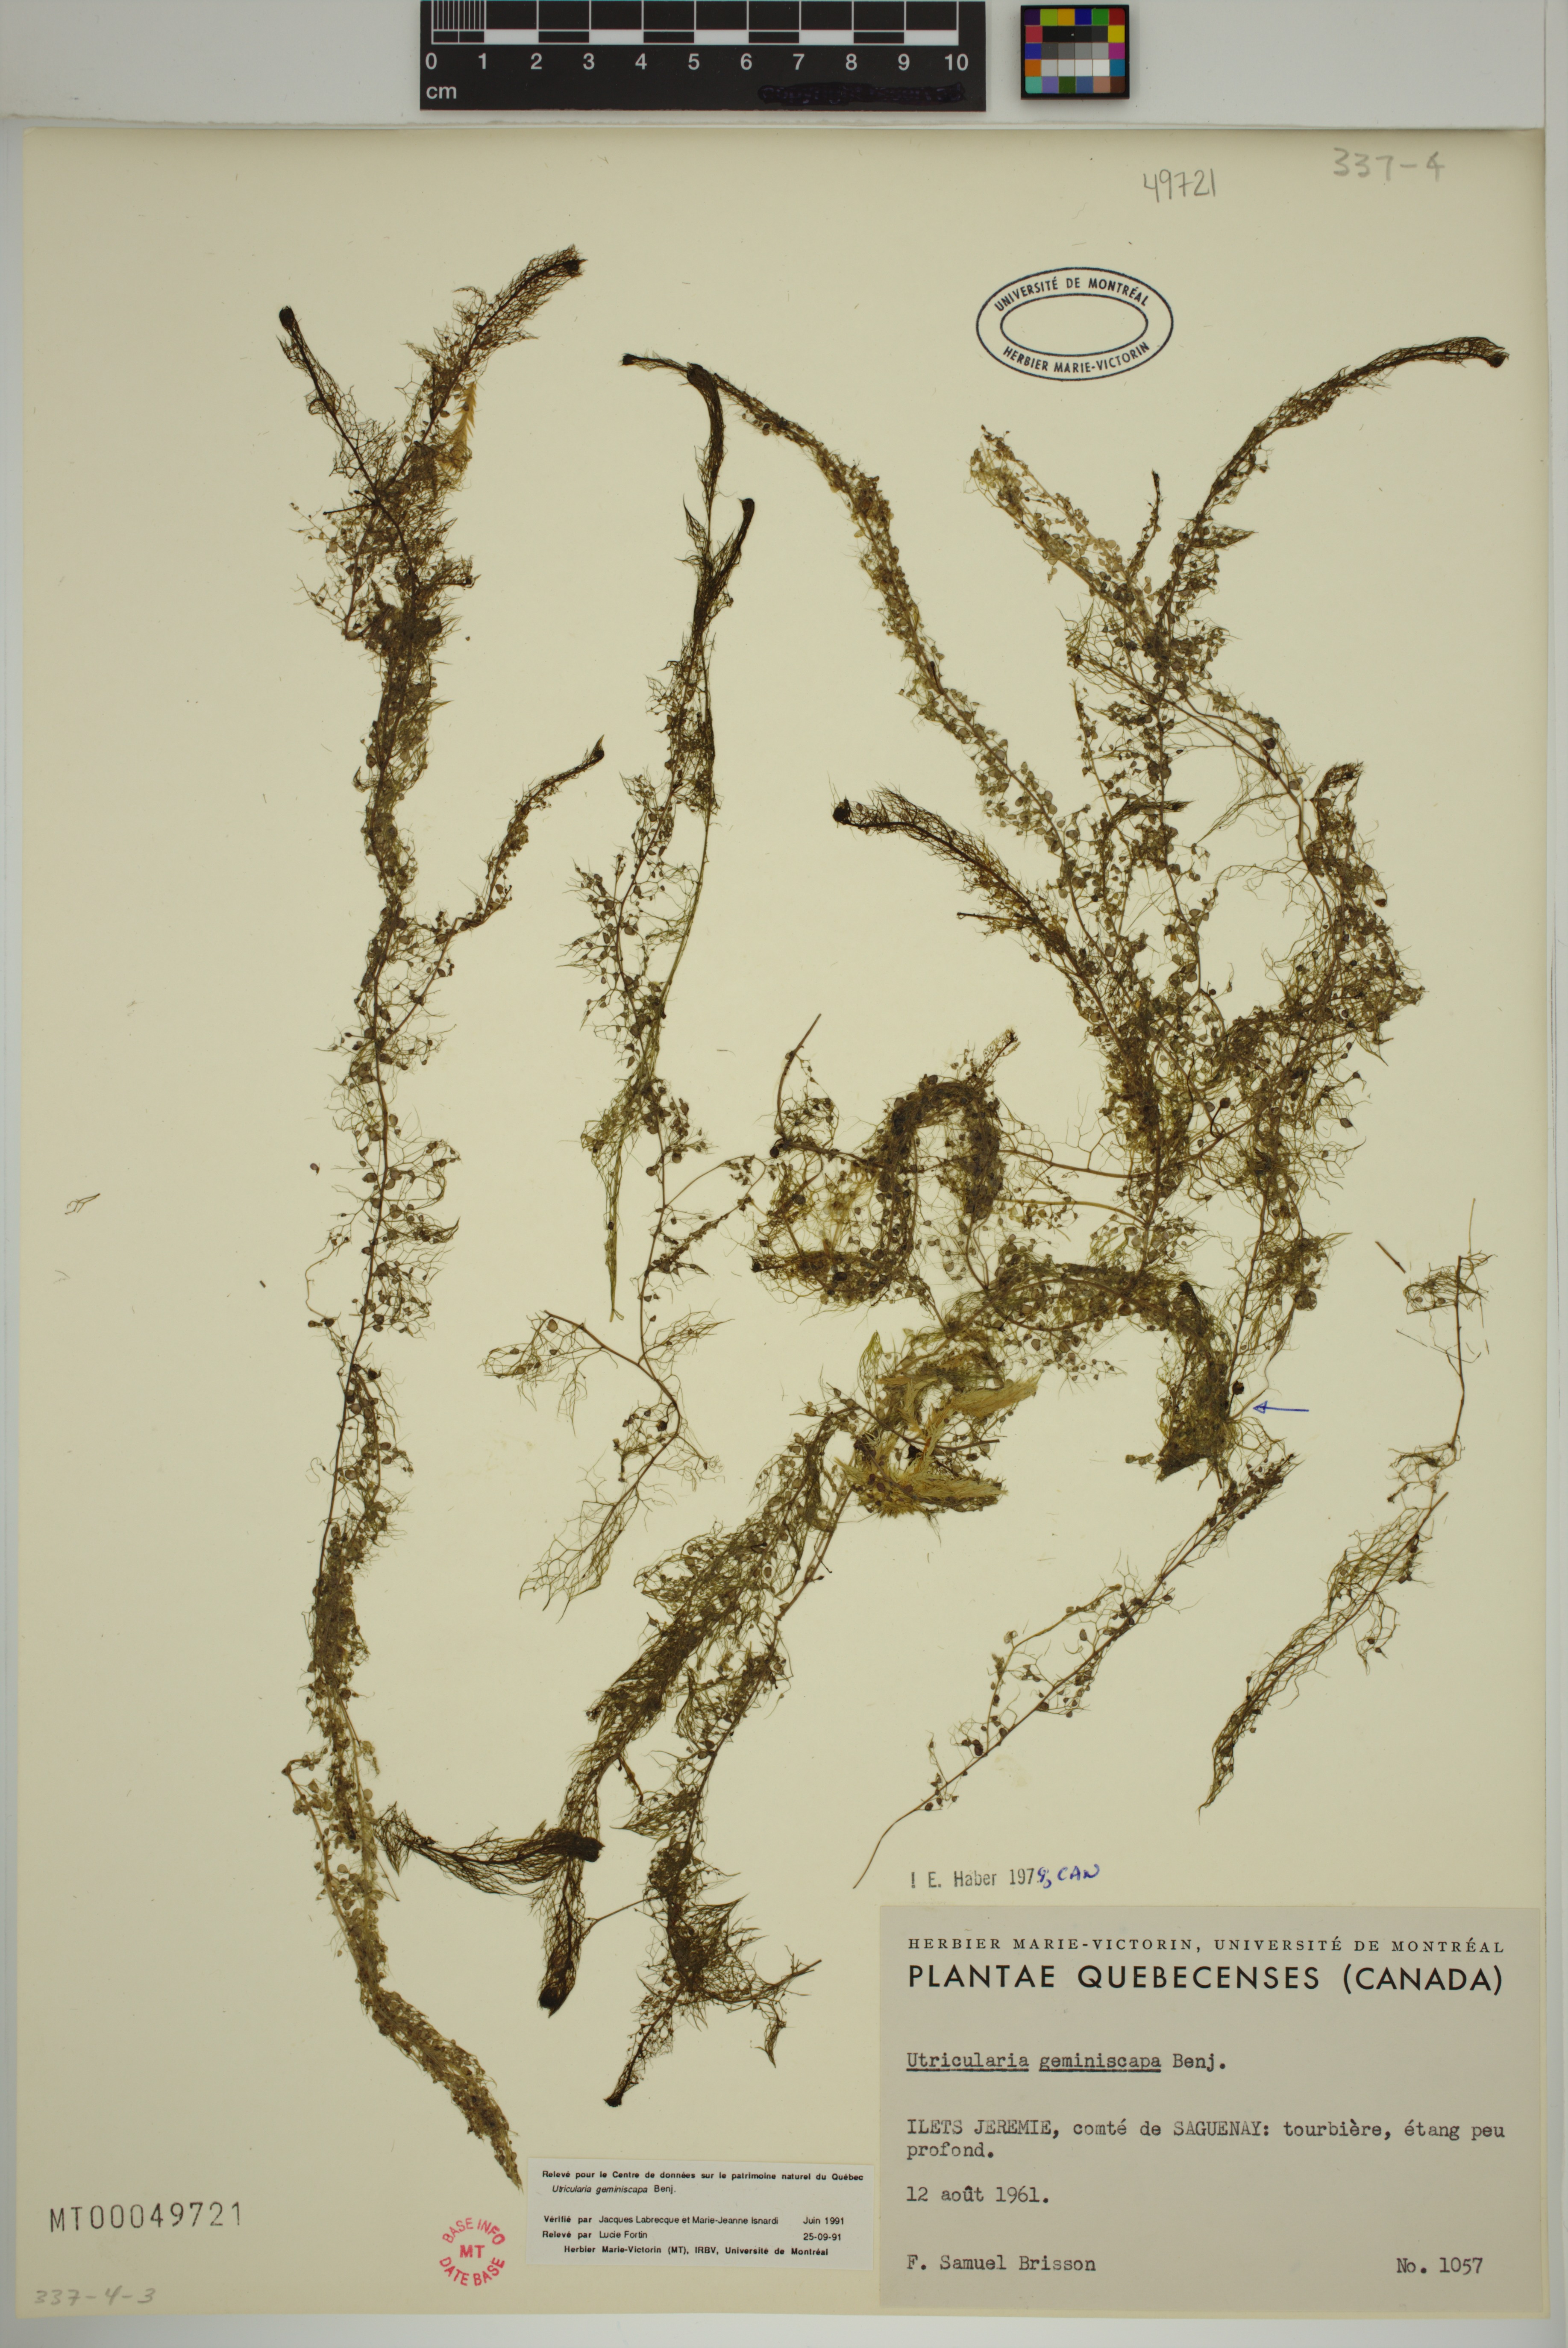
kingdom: Plantae
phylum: Tracheophyta
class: Magnoliopsida
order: Lamiales
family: Lentibulariaceae
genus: Utricularia
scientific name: Utricularia geminiscapa
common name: Hidden-fruit bladderwort
